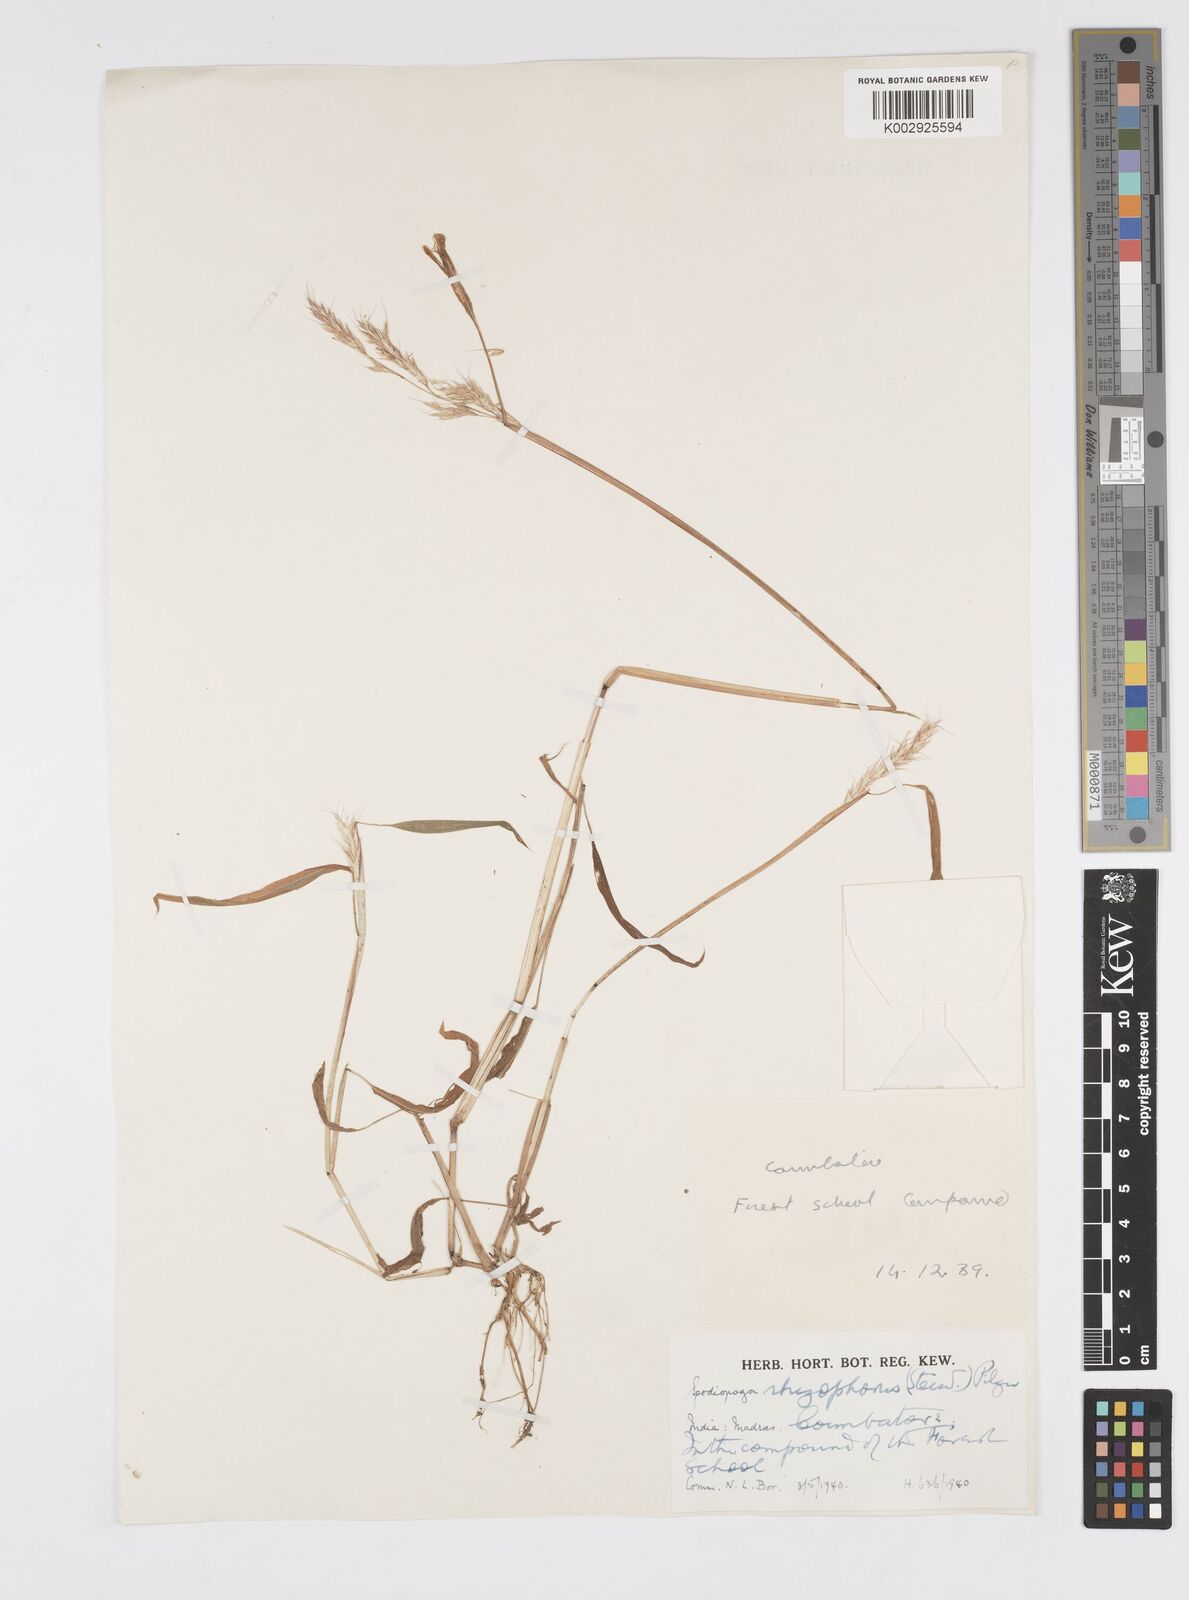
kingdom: Plantae
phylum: Tracheophyta
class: Liliopsida
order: Poales
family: Poaceae
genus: Spodiopogon
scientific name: Spodiopogon rhizophorus
